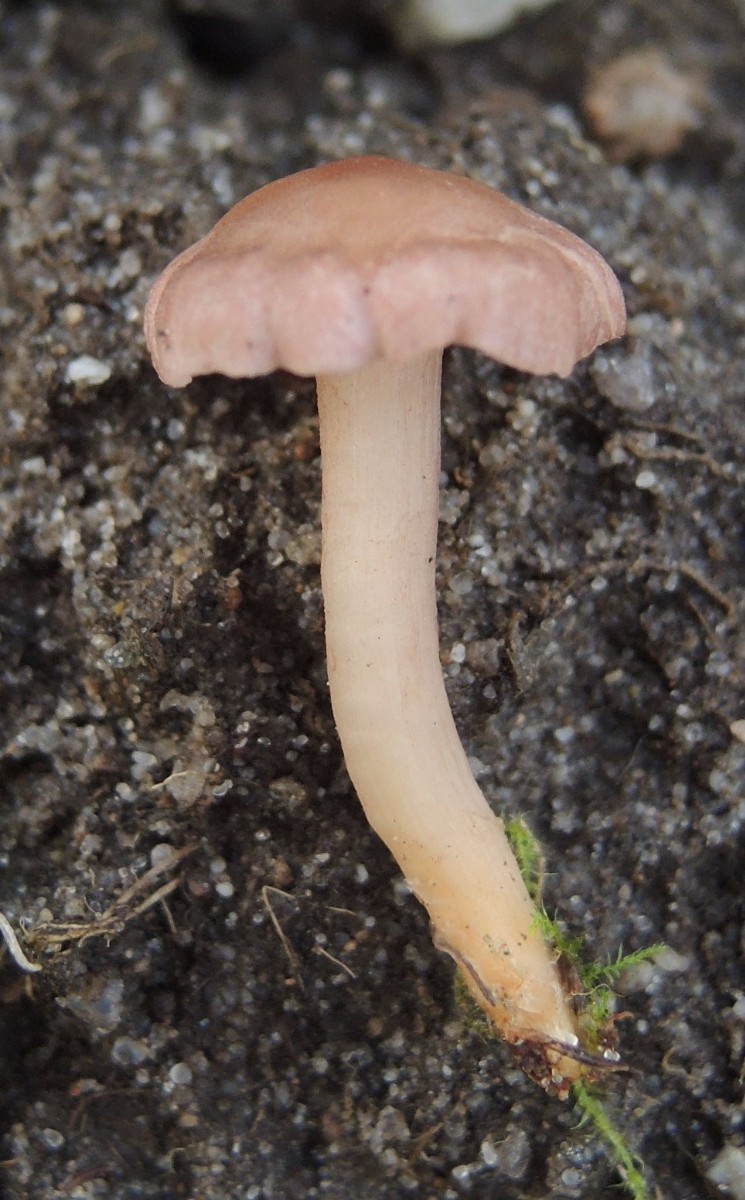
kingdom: Fungi
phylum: Basidiomycota
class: Agaricomycetes
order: Agaricales
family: Lyophyllaceae
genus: Calocybe
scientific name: Calocybe carnea
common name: rosa fagerhat
